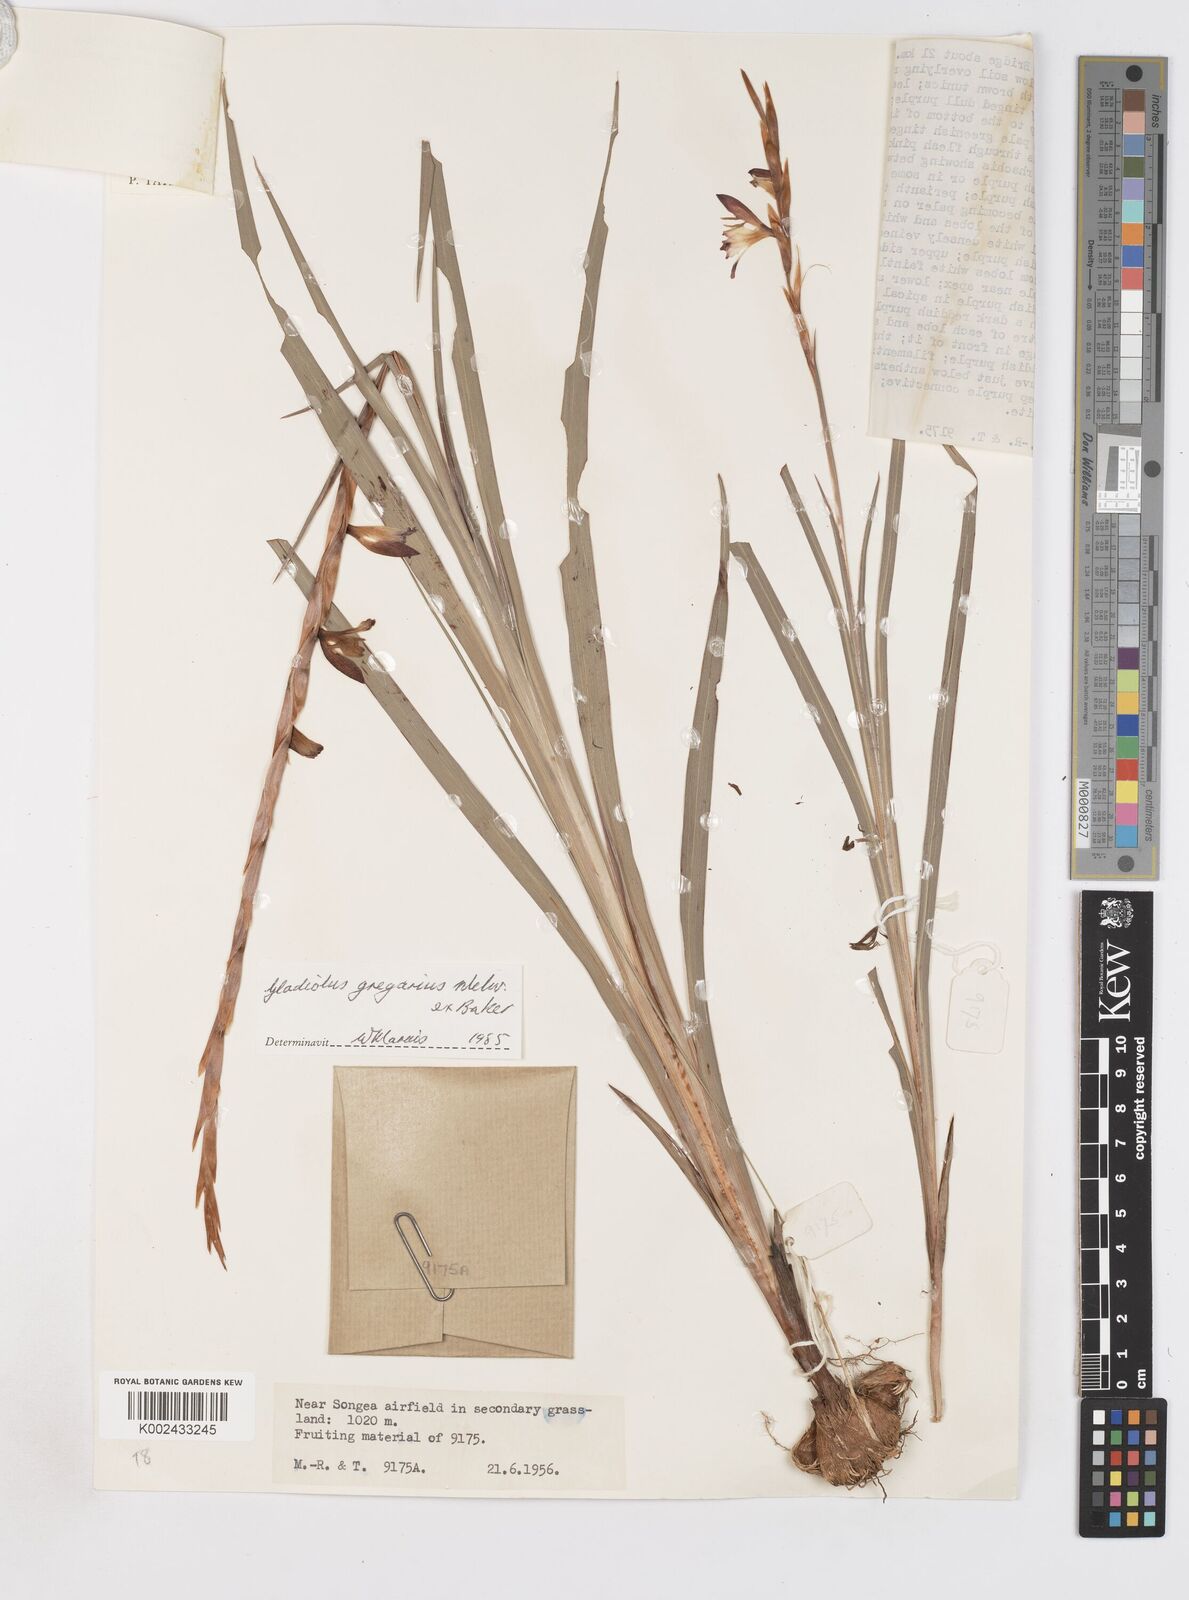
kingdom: Plantae
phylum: Tracheophyta
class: Liliopsida
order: Asparagales
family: Iridaceae
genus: Gladiolus
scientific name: Gladiolus gregarius
